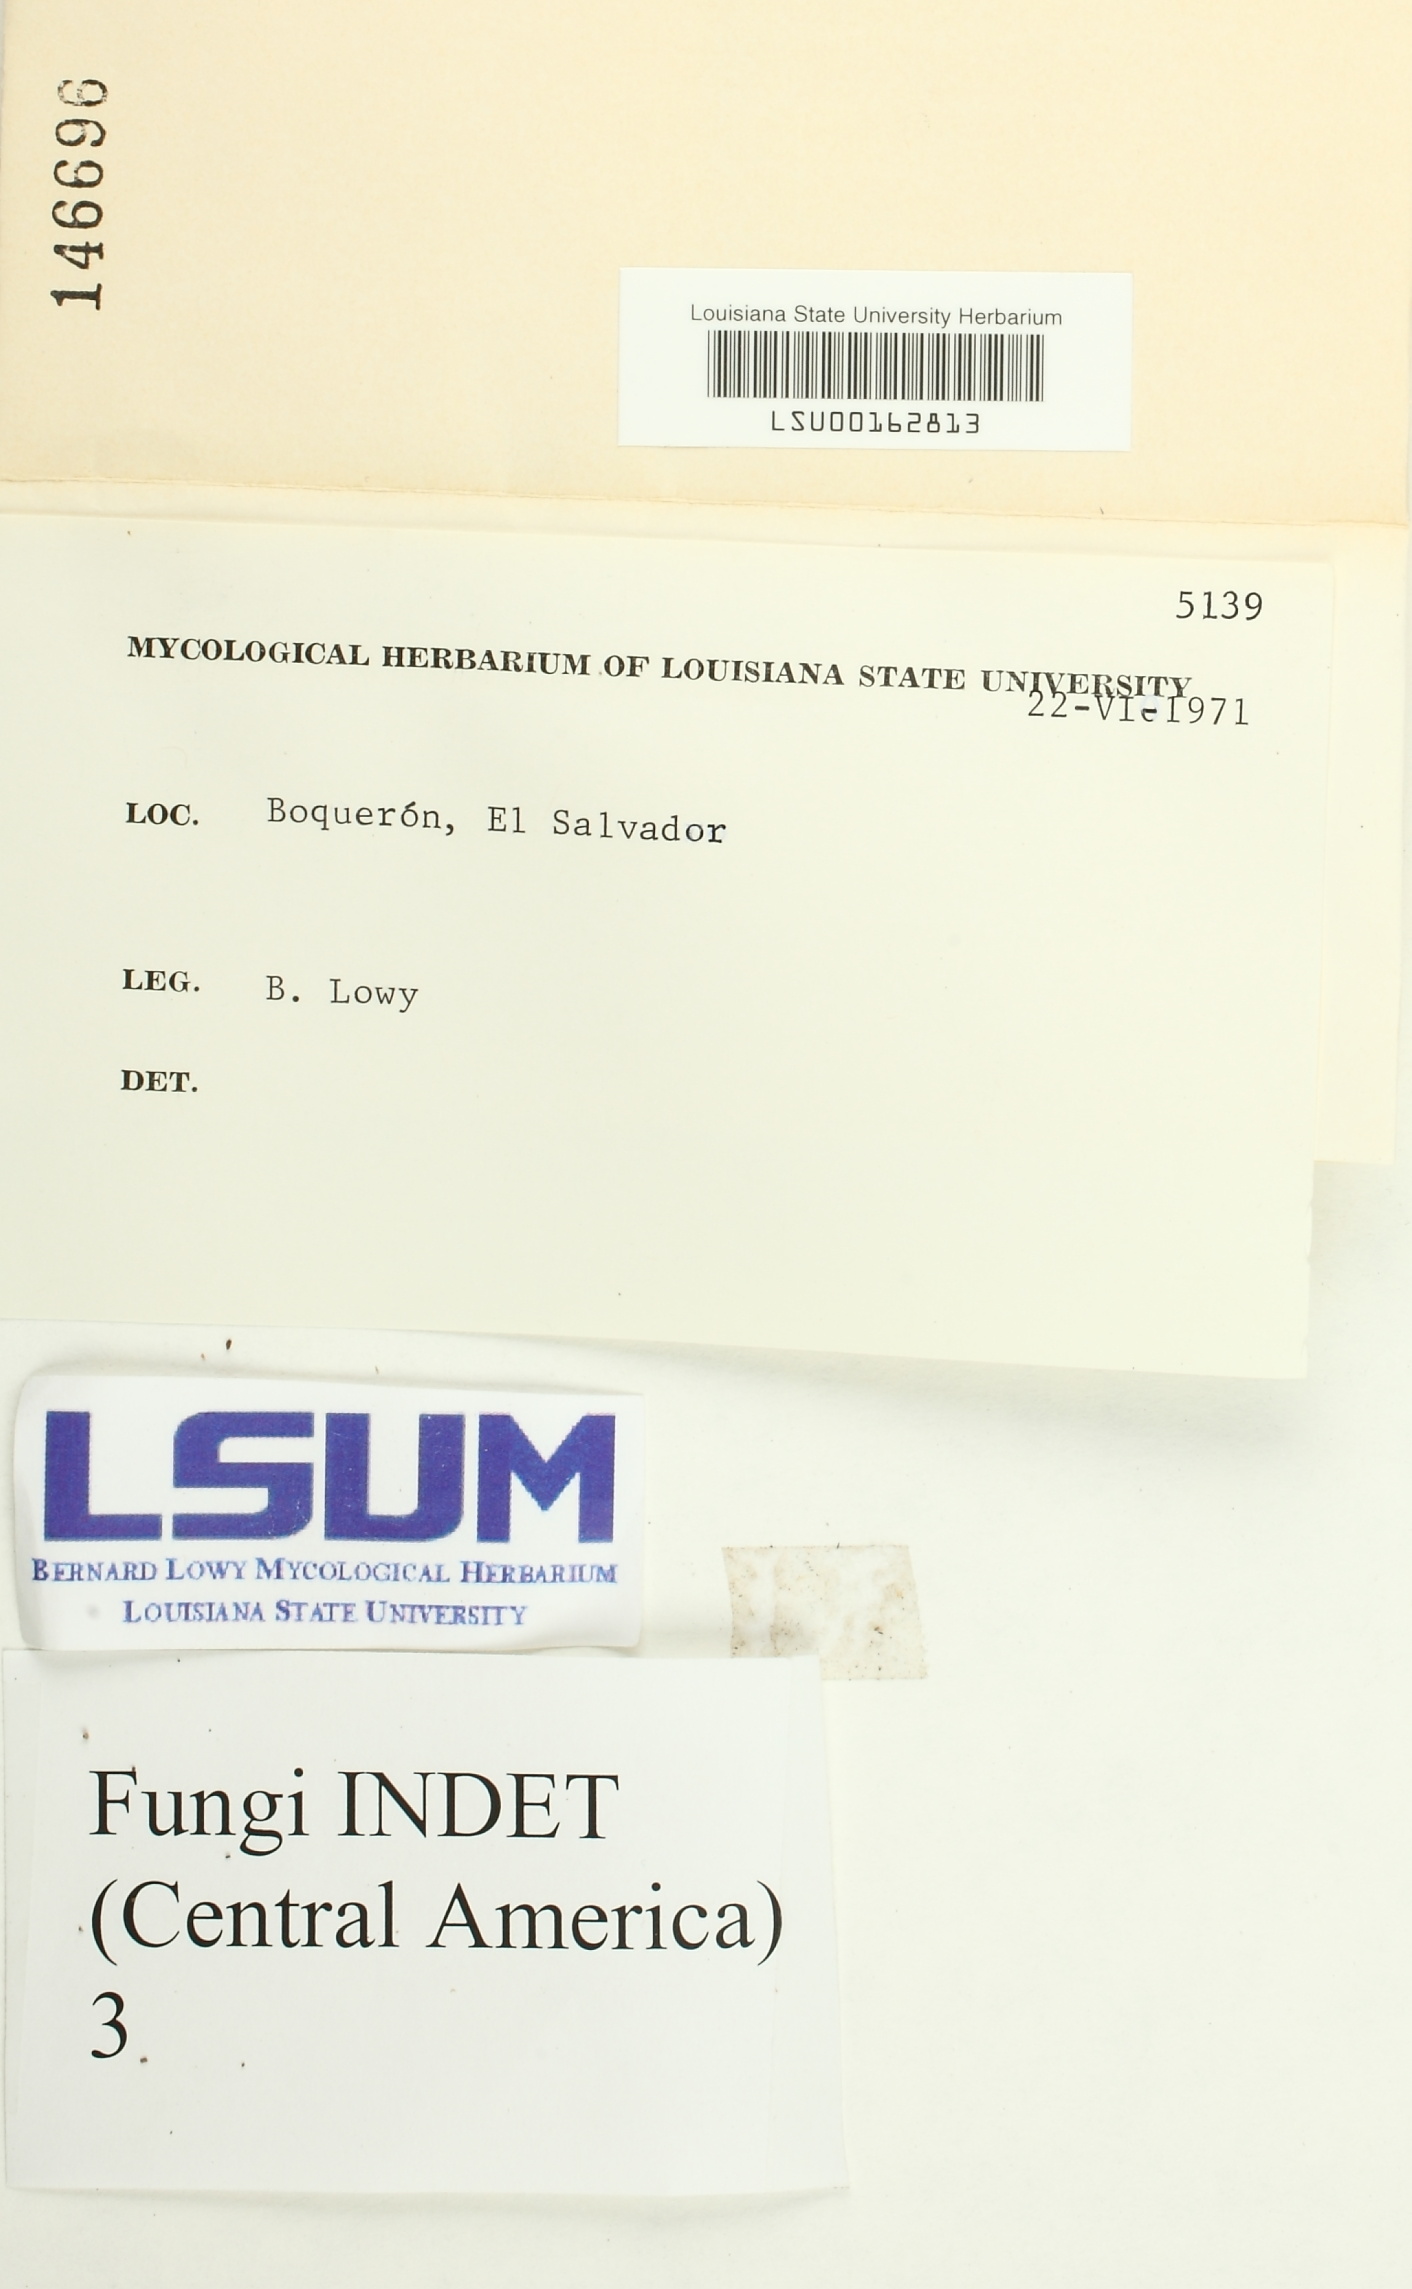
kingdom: Fungi
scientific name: Fungi
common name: Fungi
